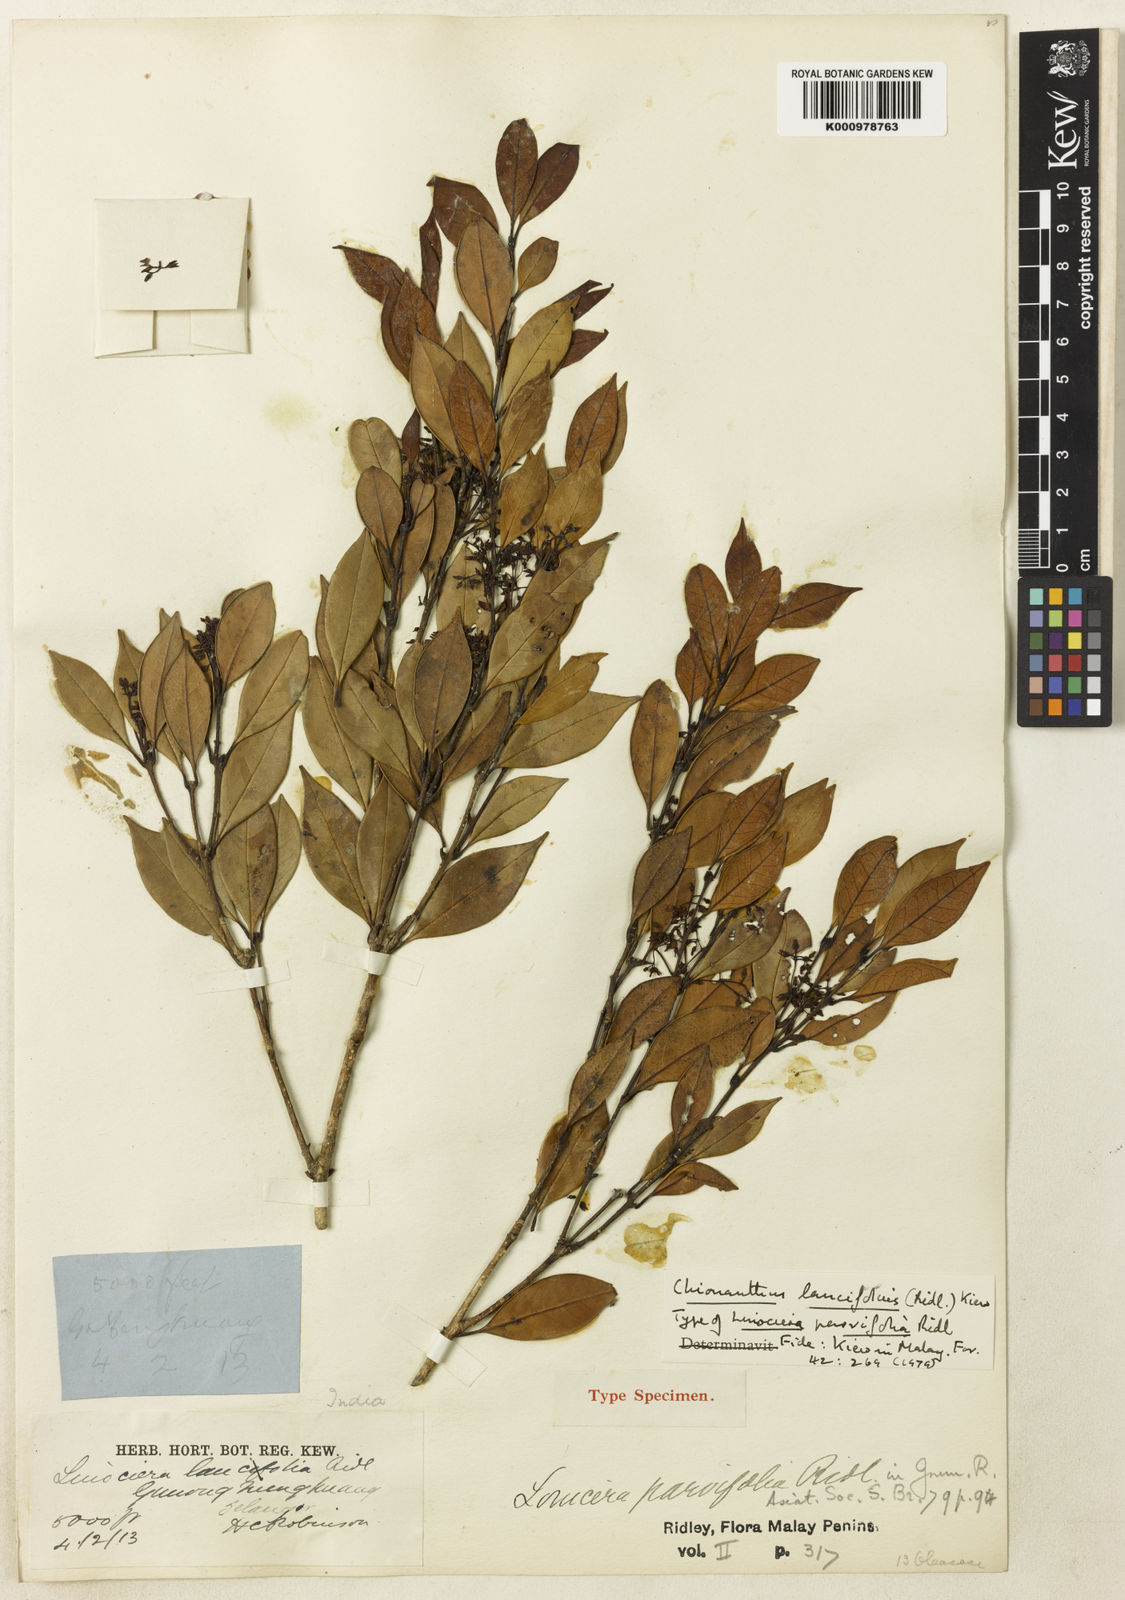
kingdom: Plantae
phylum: Tracheophyta
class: Magnoliopsida
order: Lamiales
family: Oleaceae
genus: Chionanthus
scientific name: Chionanthus lancifolius
